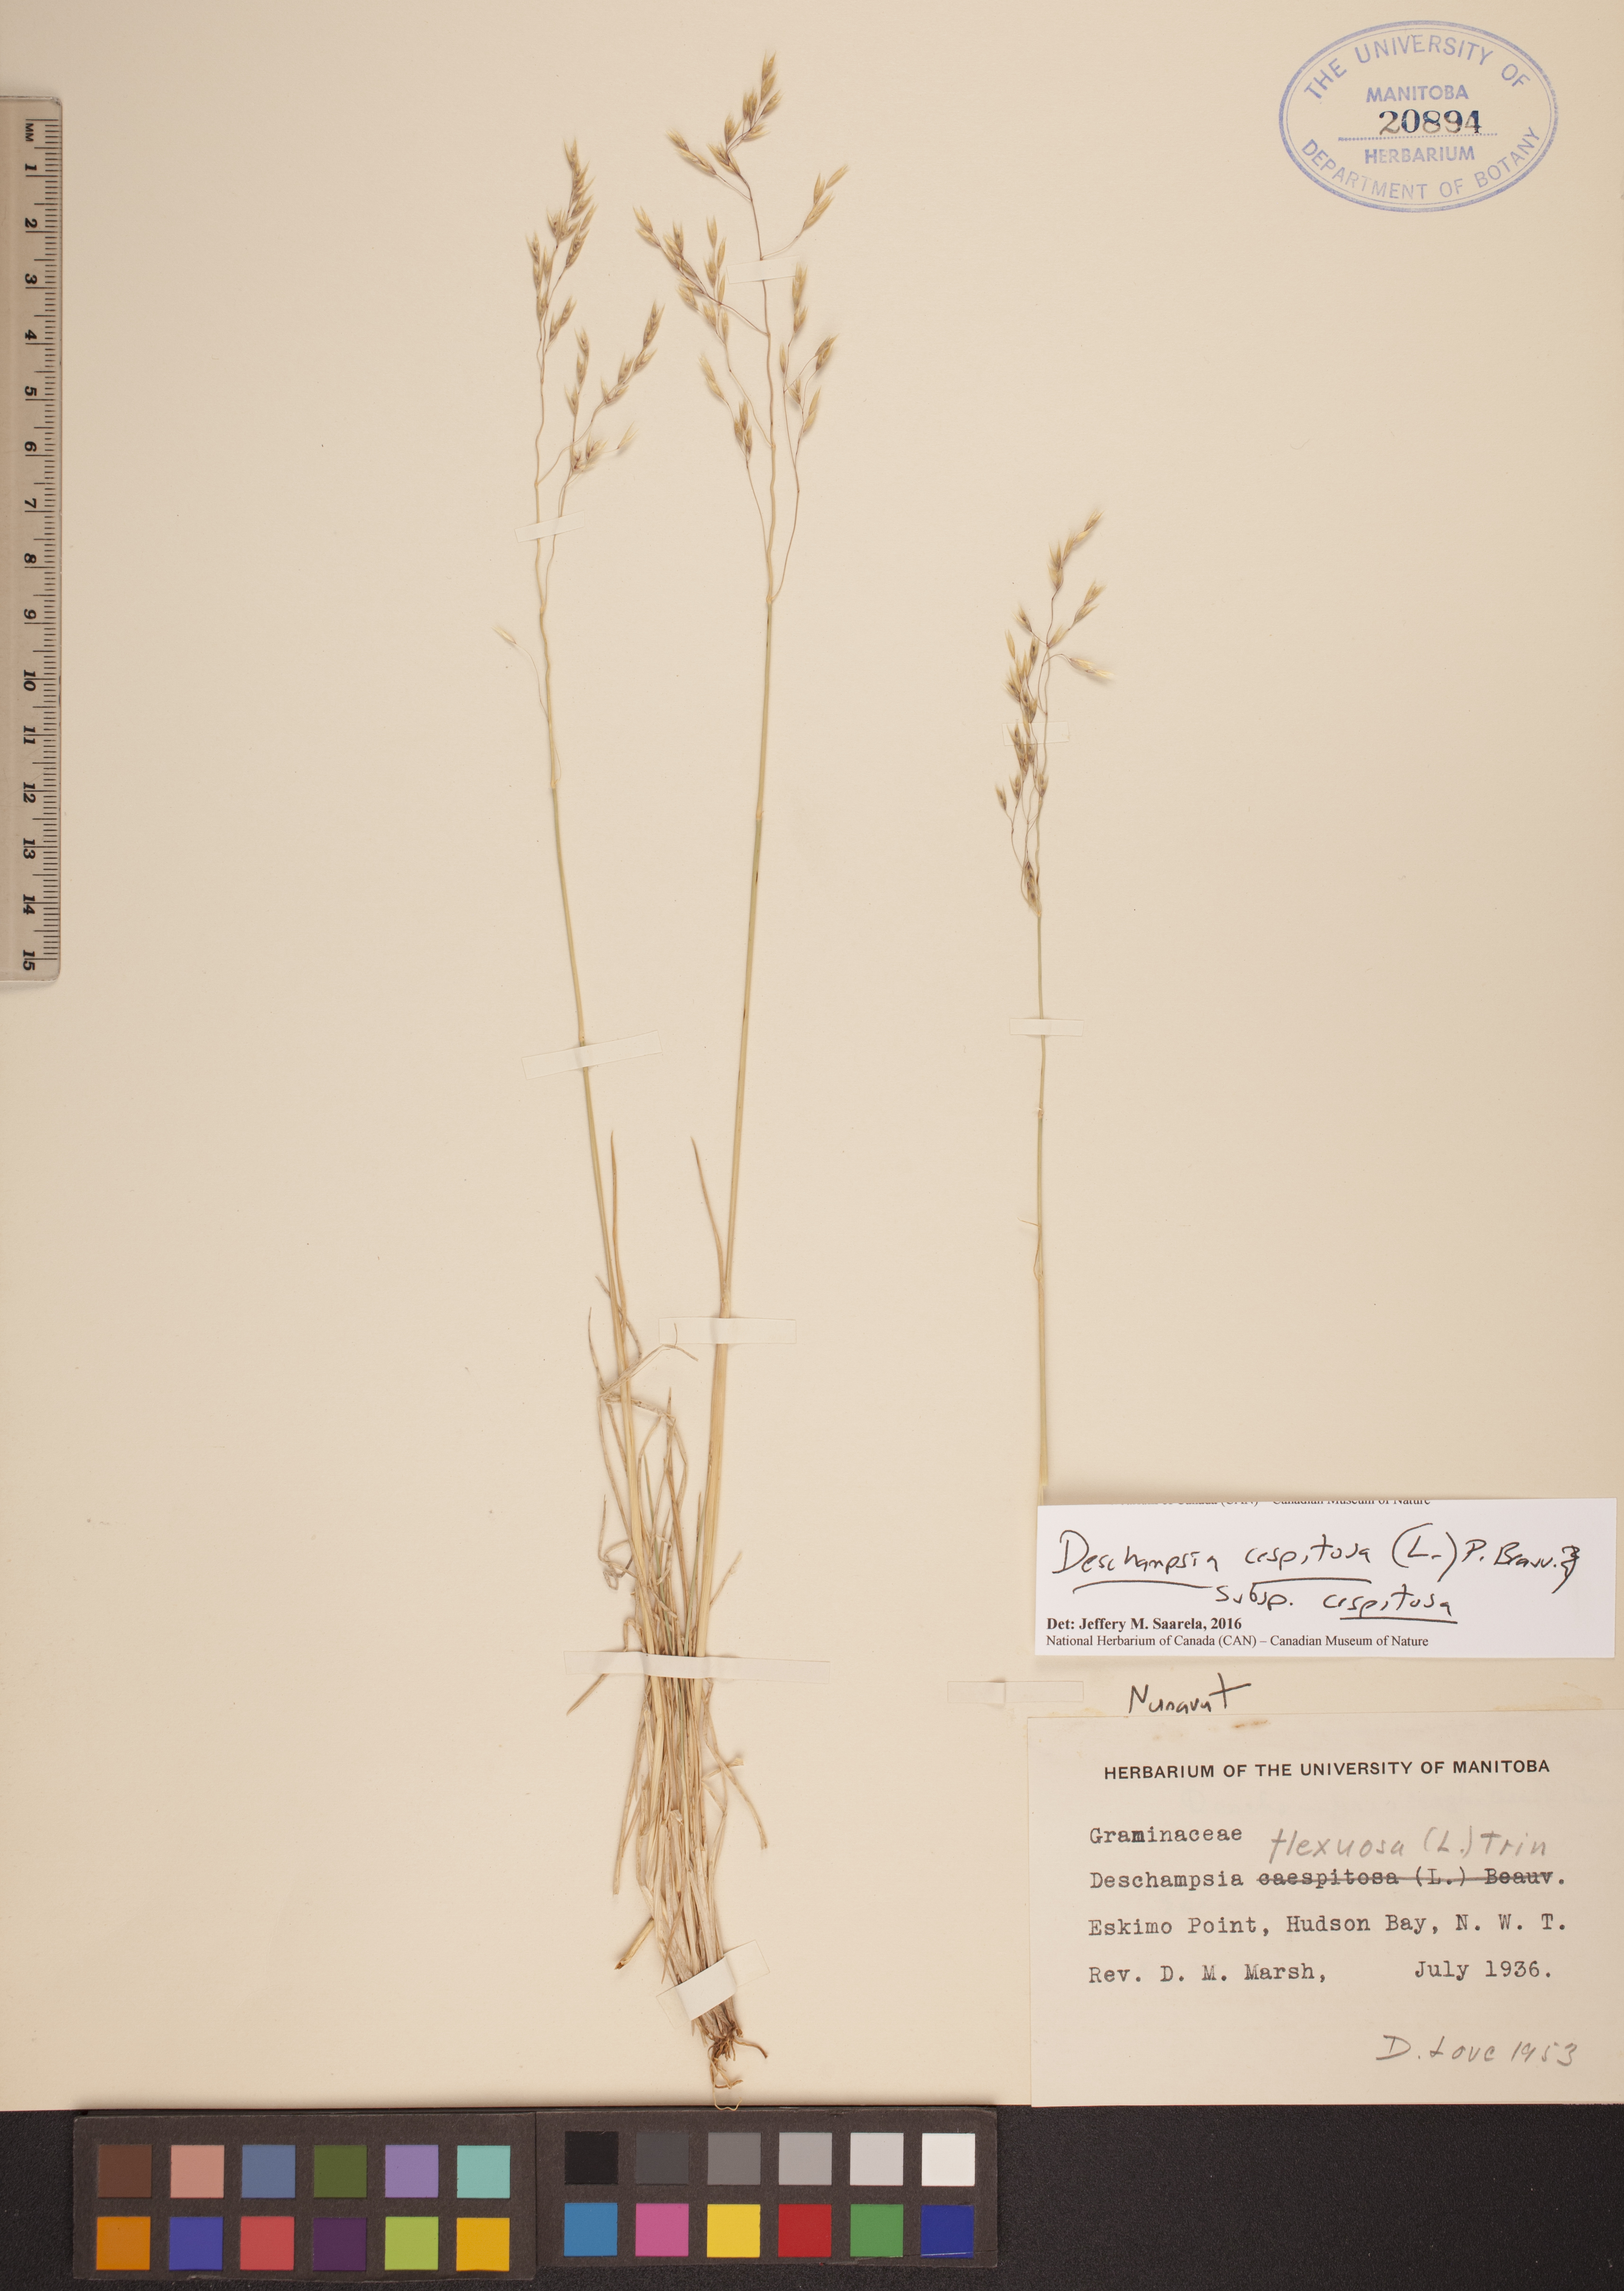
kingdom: Plantae
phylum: Tracheophyta
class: Liliopsida
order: Poales
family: Poaceae
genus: Deschampsia
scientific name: Deschampsia cespitosa
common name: Tufted hair-grass
